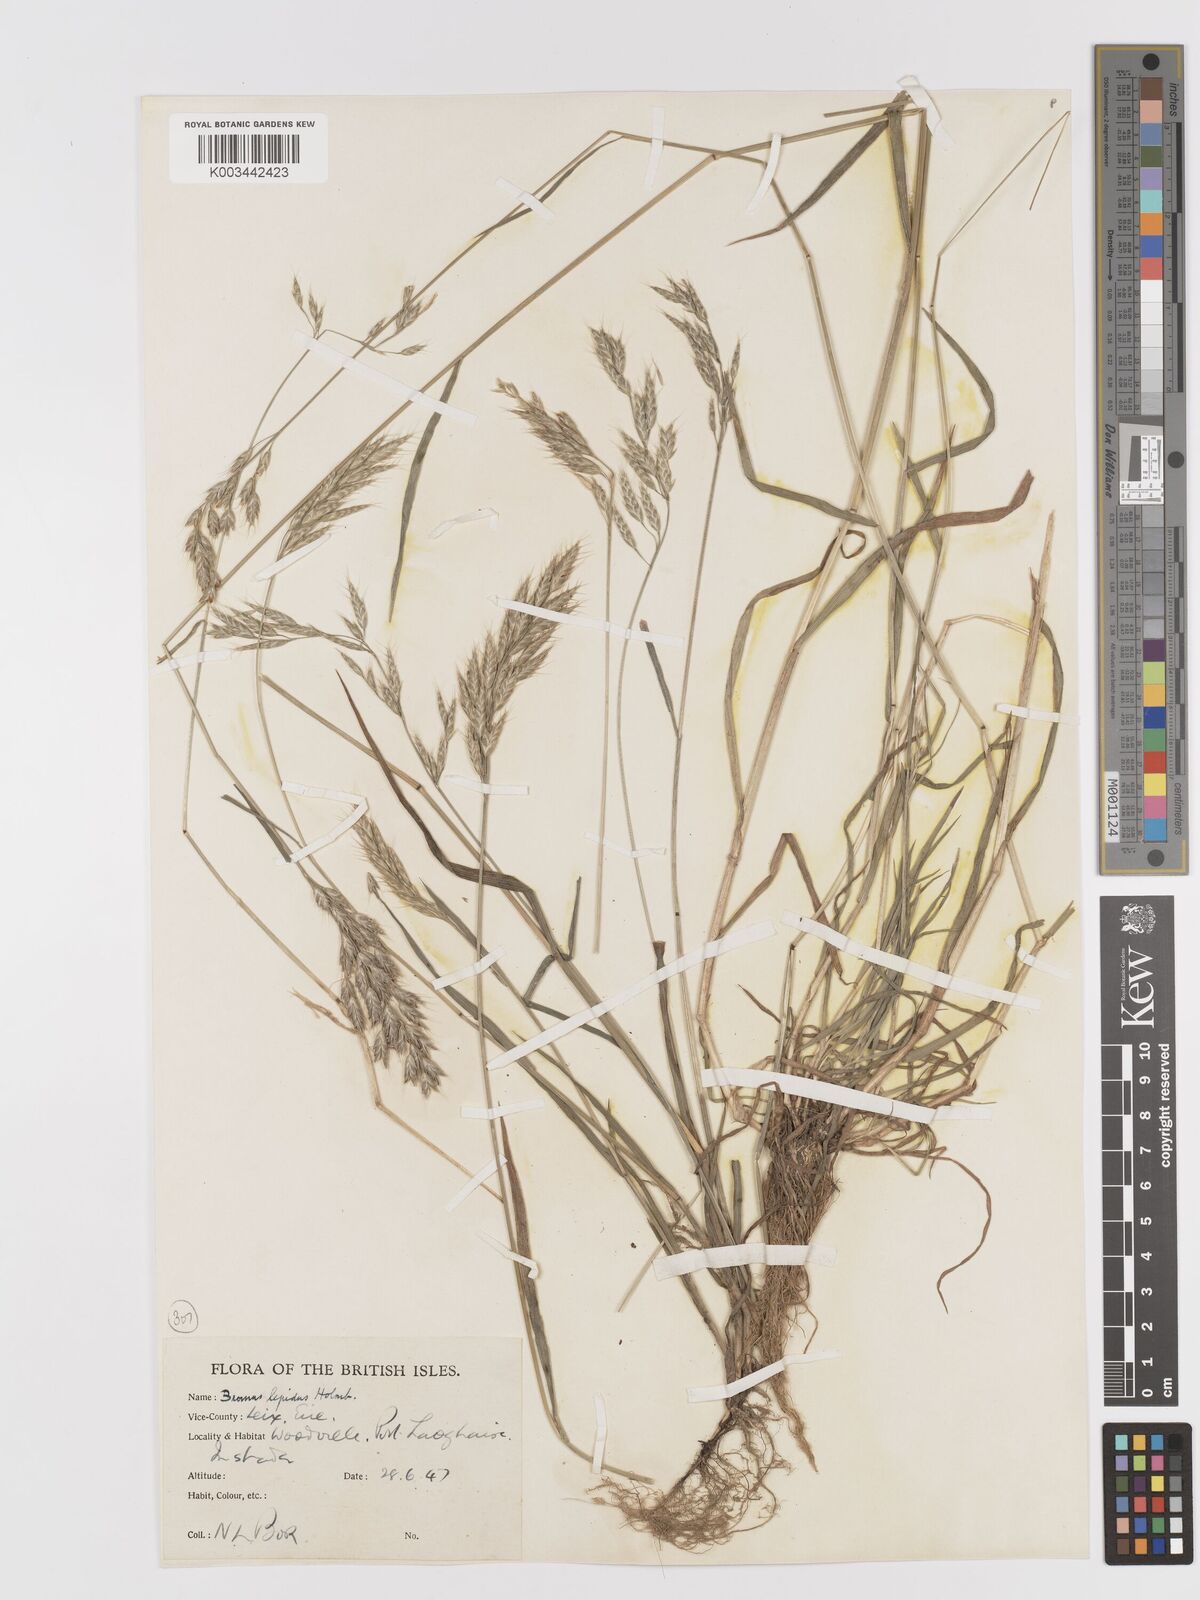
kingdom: Plantae
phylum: Tracheophyta
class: Liliopsida
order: Poales
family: Poaceae
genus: Bromus
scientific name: Bromus lepidus
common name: Slender soft-brome
